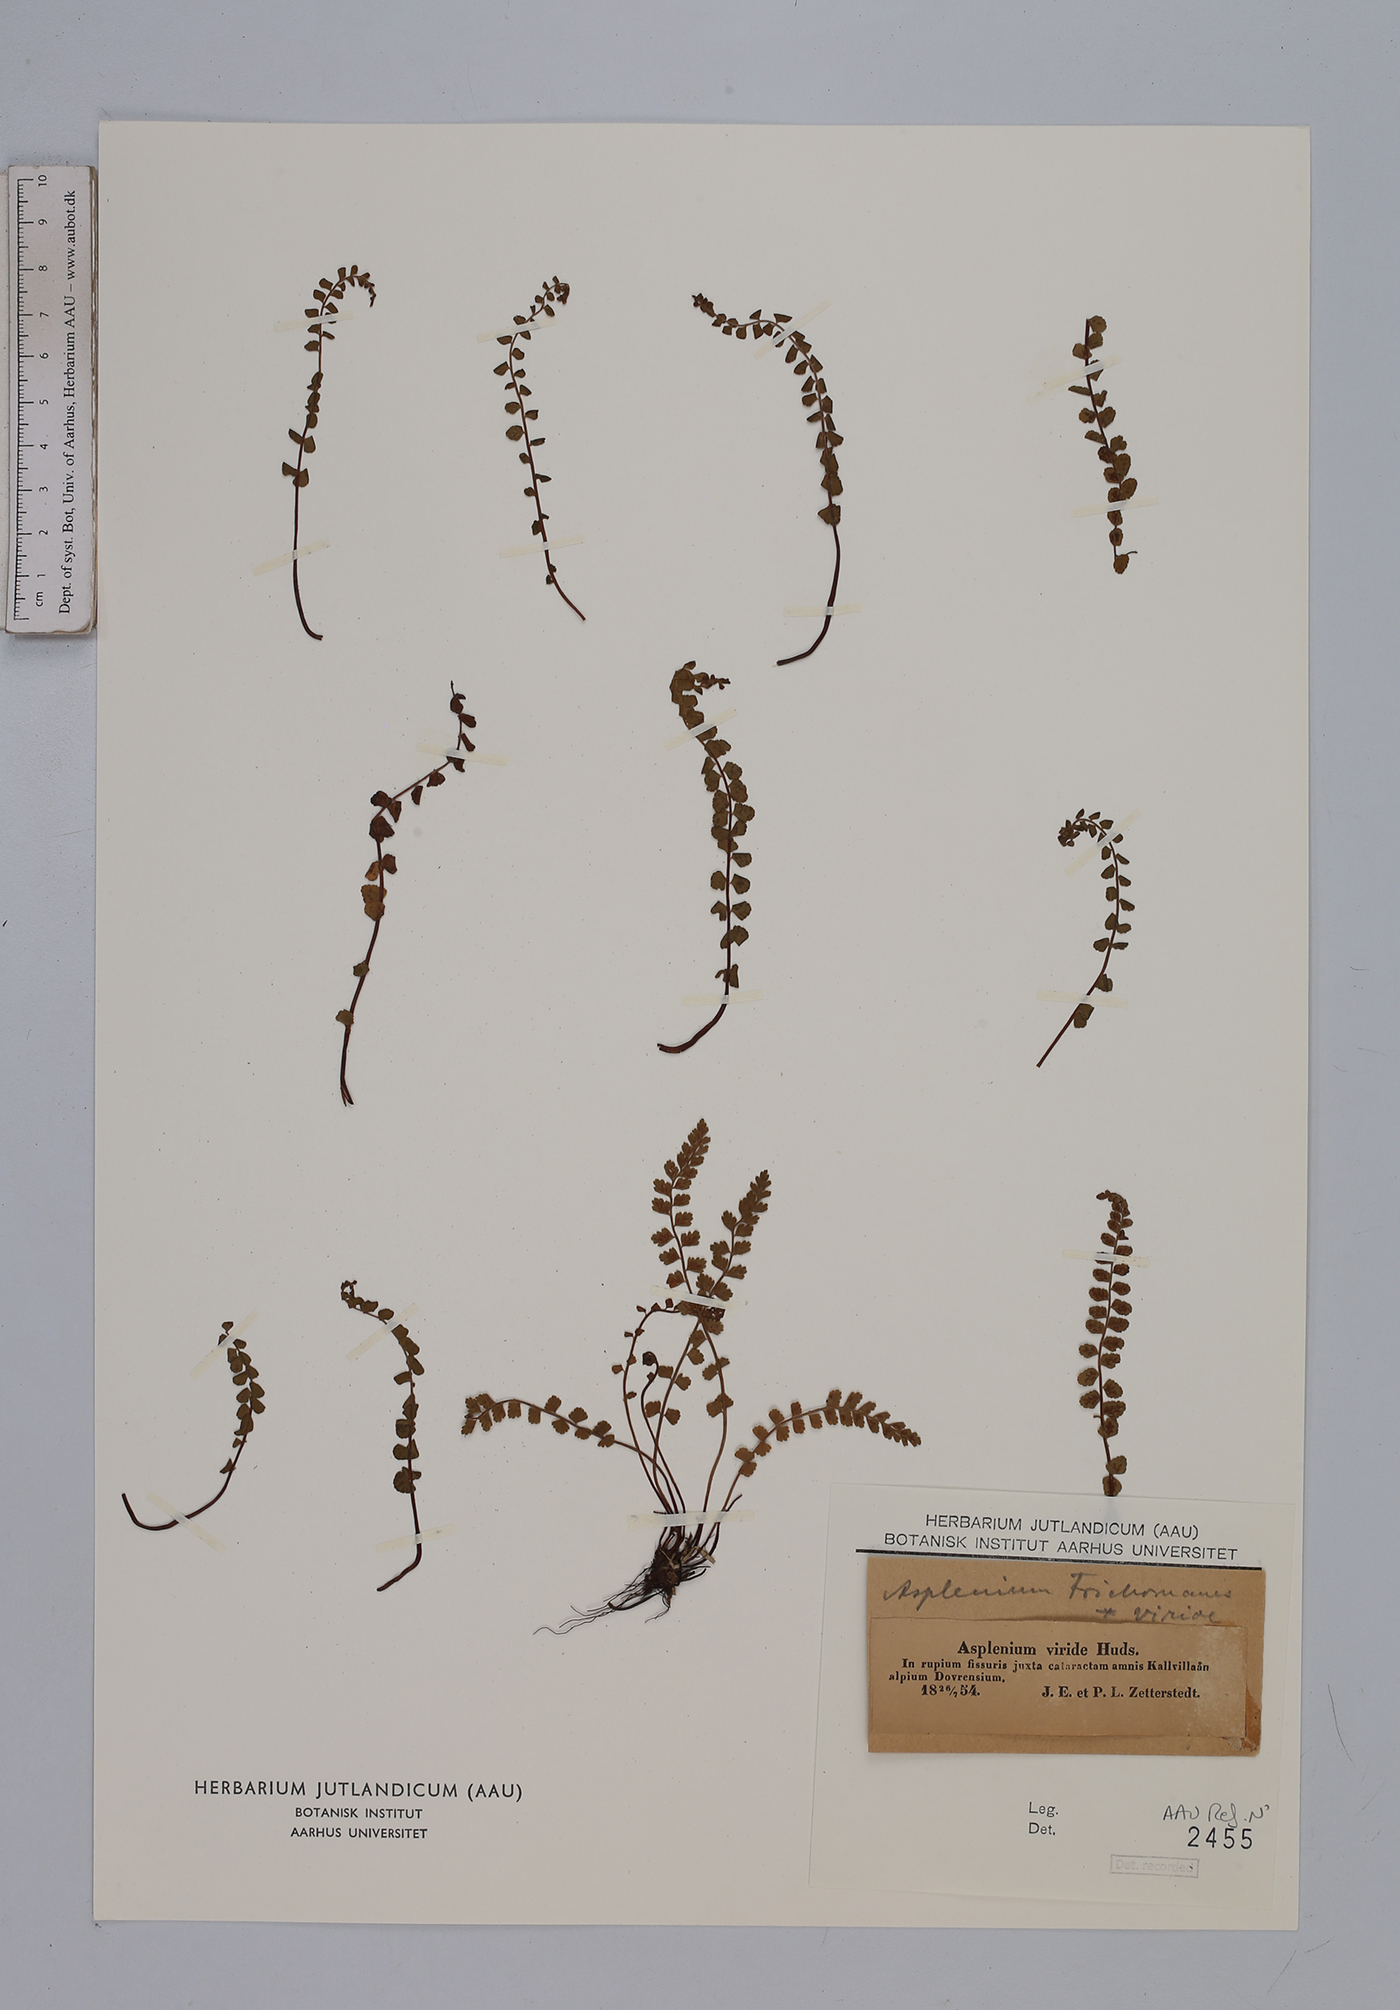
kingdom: Plantae
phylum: Tracheophyta
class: Polypodiopsida
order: Polypodiales
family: Aspleniaceae
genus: Asplenium
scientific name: Asplenium viride
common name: Green spleenwort
